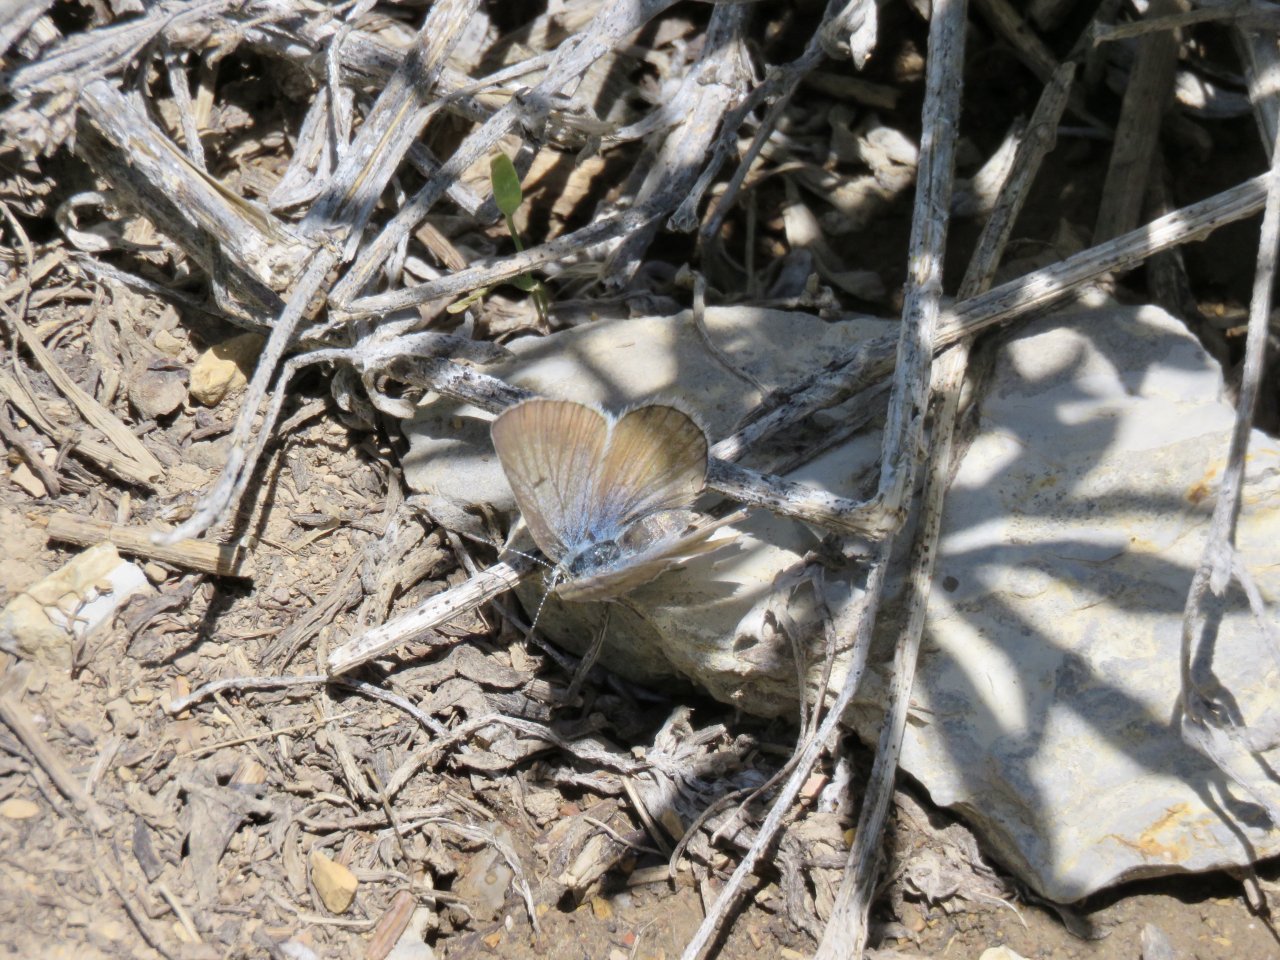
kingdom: Animalia
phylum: Arthropoda
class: Insecta
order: Lepidoptera
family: Lycaenidae
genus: Plebejus
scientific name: Plebejus saepiolus
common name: Greenish Blue
